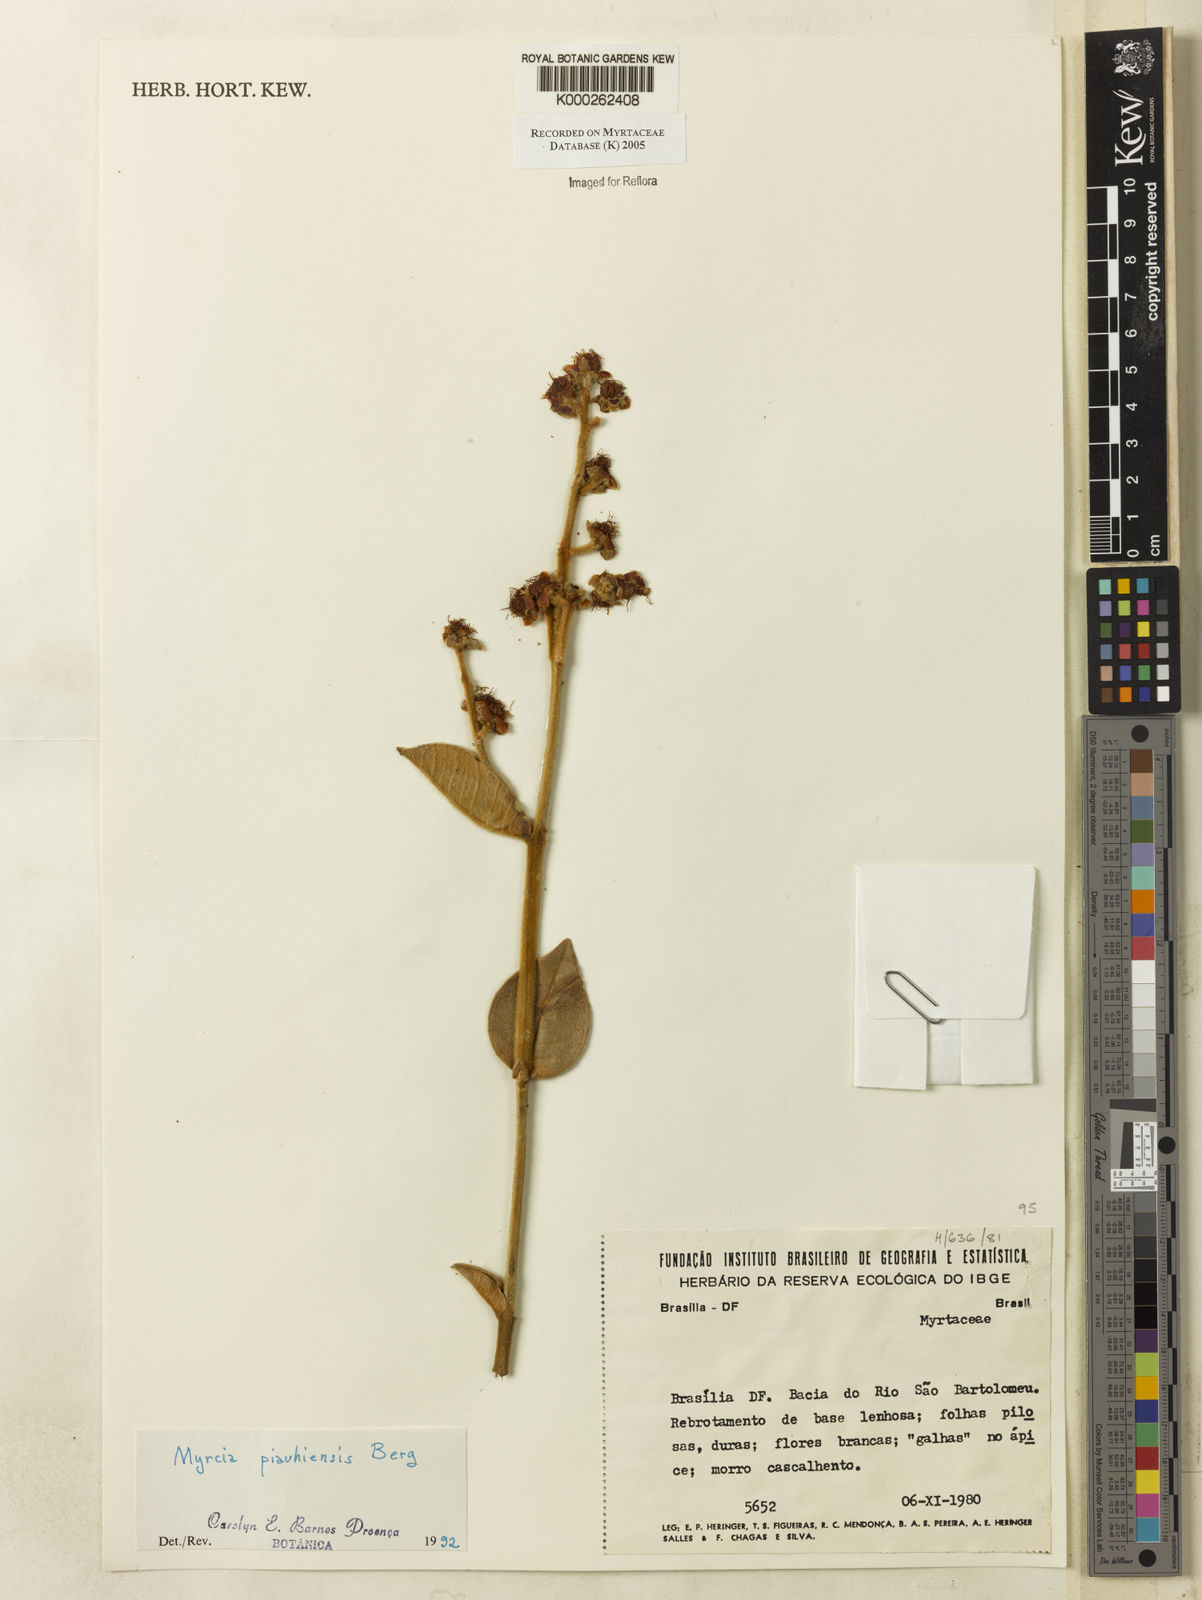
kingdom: Plantae
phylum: Tracheophyta
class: Magnoliopsida
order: Myrtales
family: Myrtaceae
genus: Myrcia
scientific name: Myrcia tomentosa
